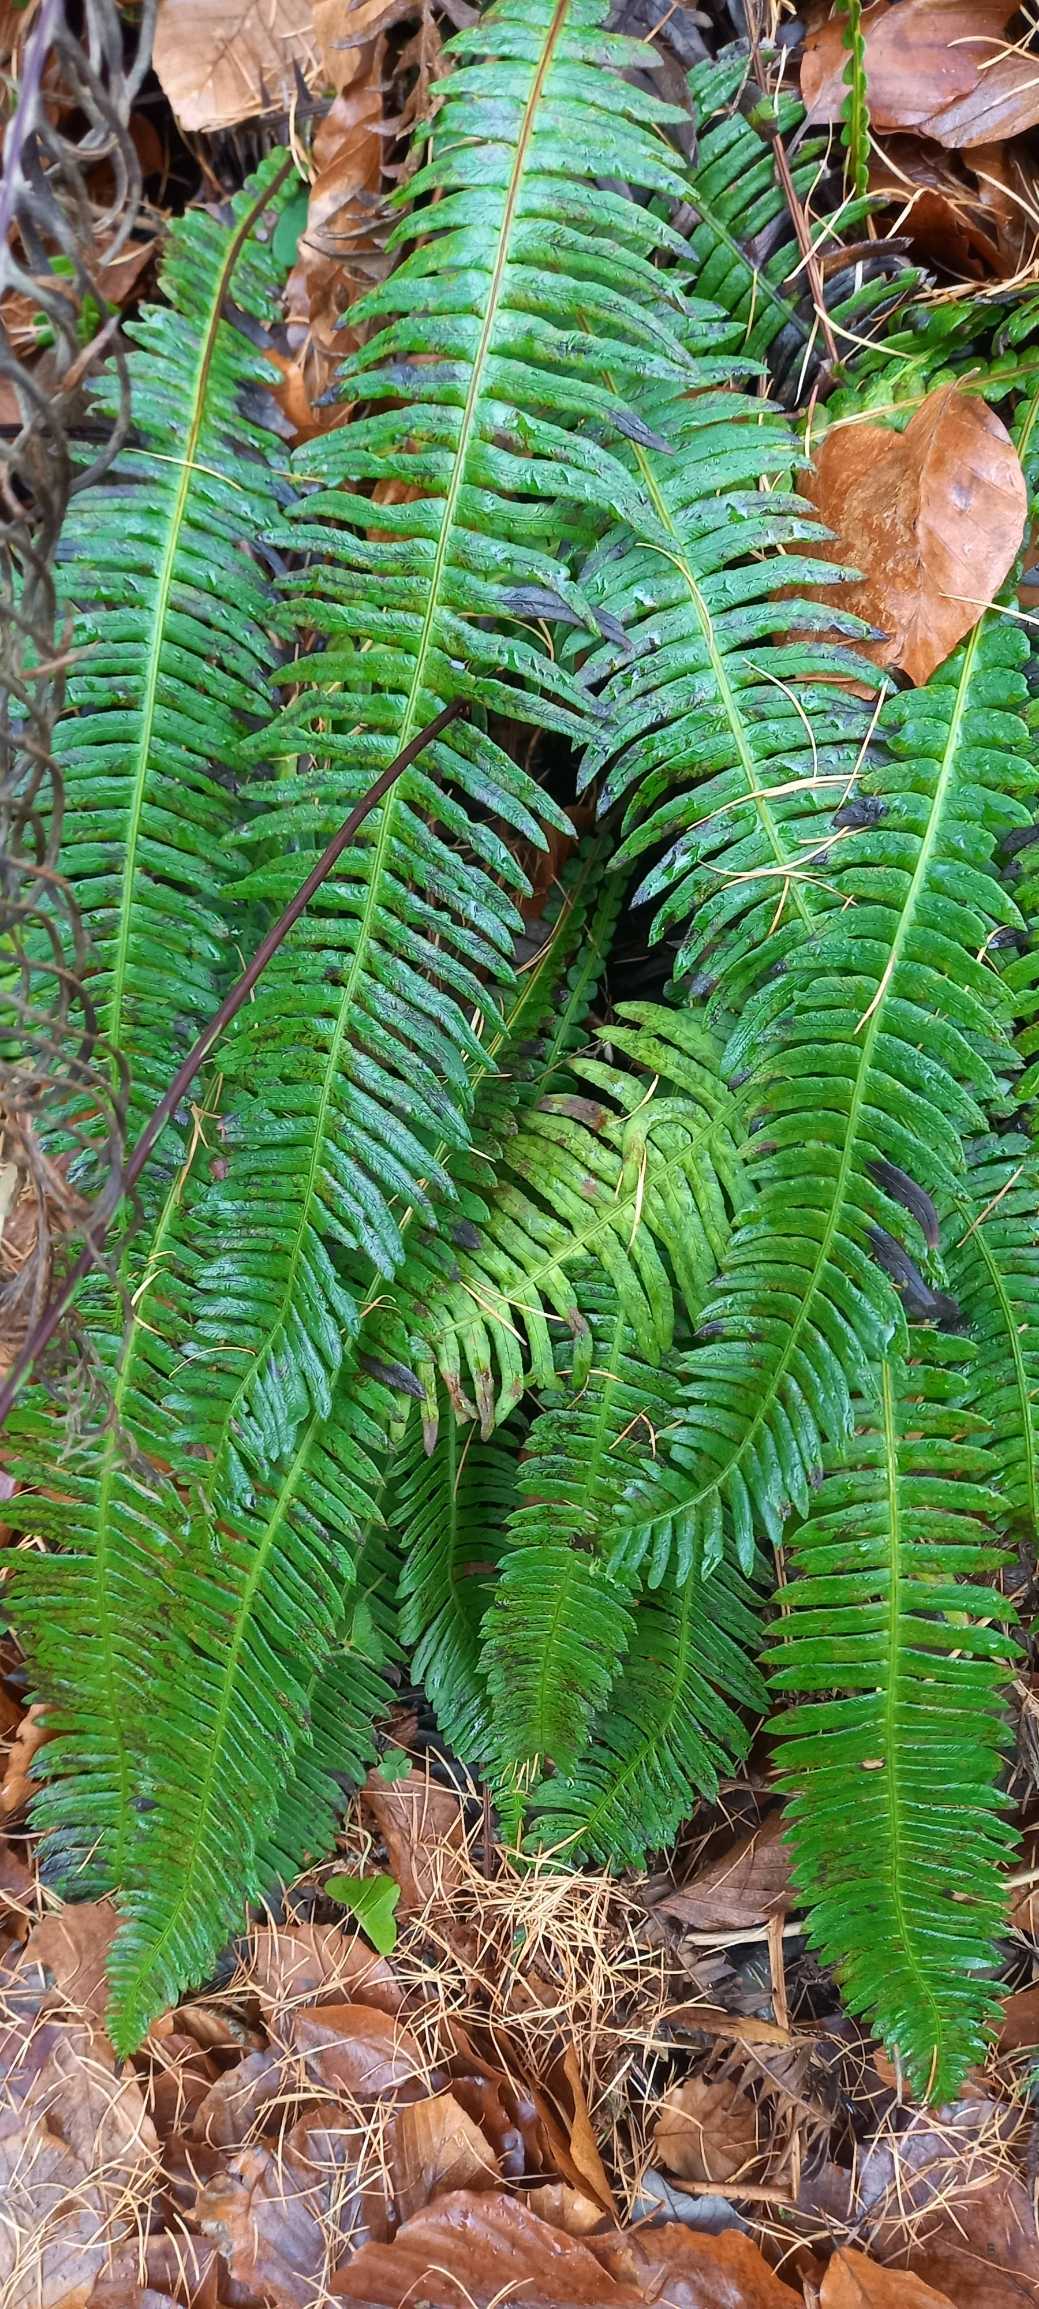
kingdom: Plantae
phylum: Tracheophyta
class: Polypodiopsida
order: Polypodiales
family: Blechnaceae
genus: Struthiopteris
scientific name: Struthiopteris spicant
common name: Kambregne
